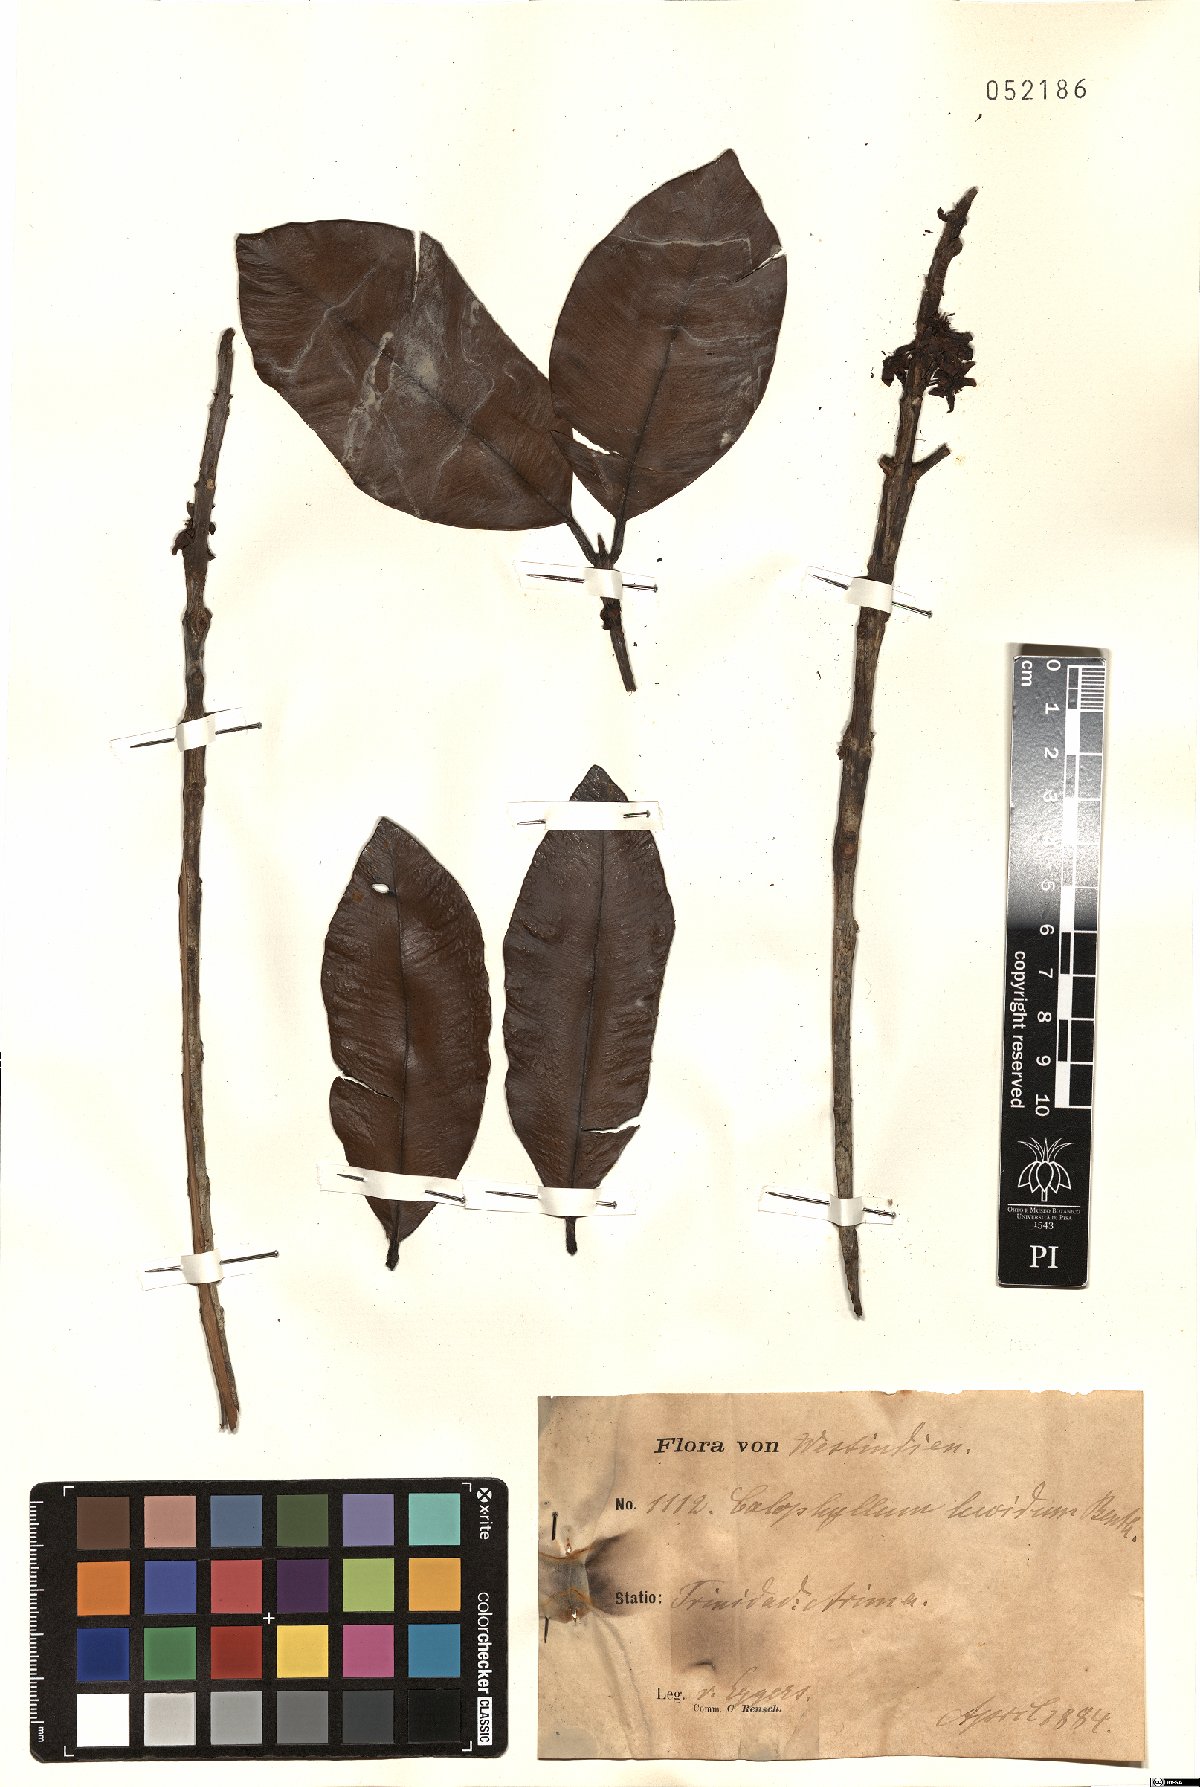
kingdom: Plantae
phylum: Tracheophyta
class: Magnoliopsida
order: Malpighiales
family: Calophyllaceae
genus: Calophyllum
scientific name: Calophyllum brasiliense
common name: Santa maria
